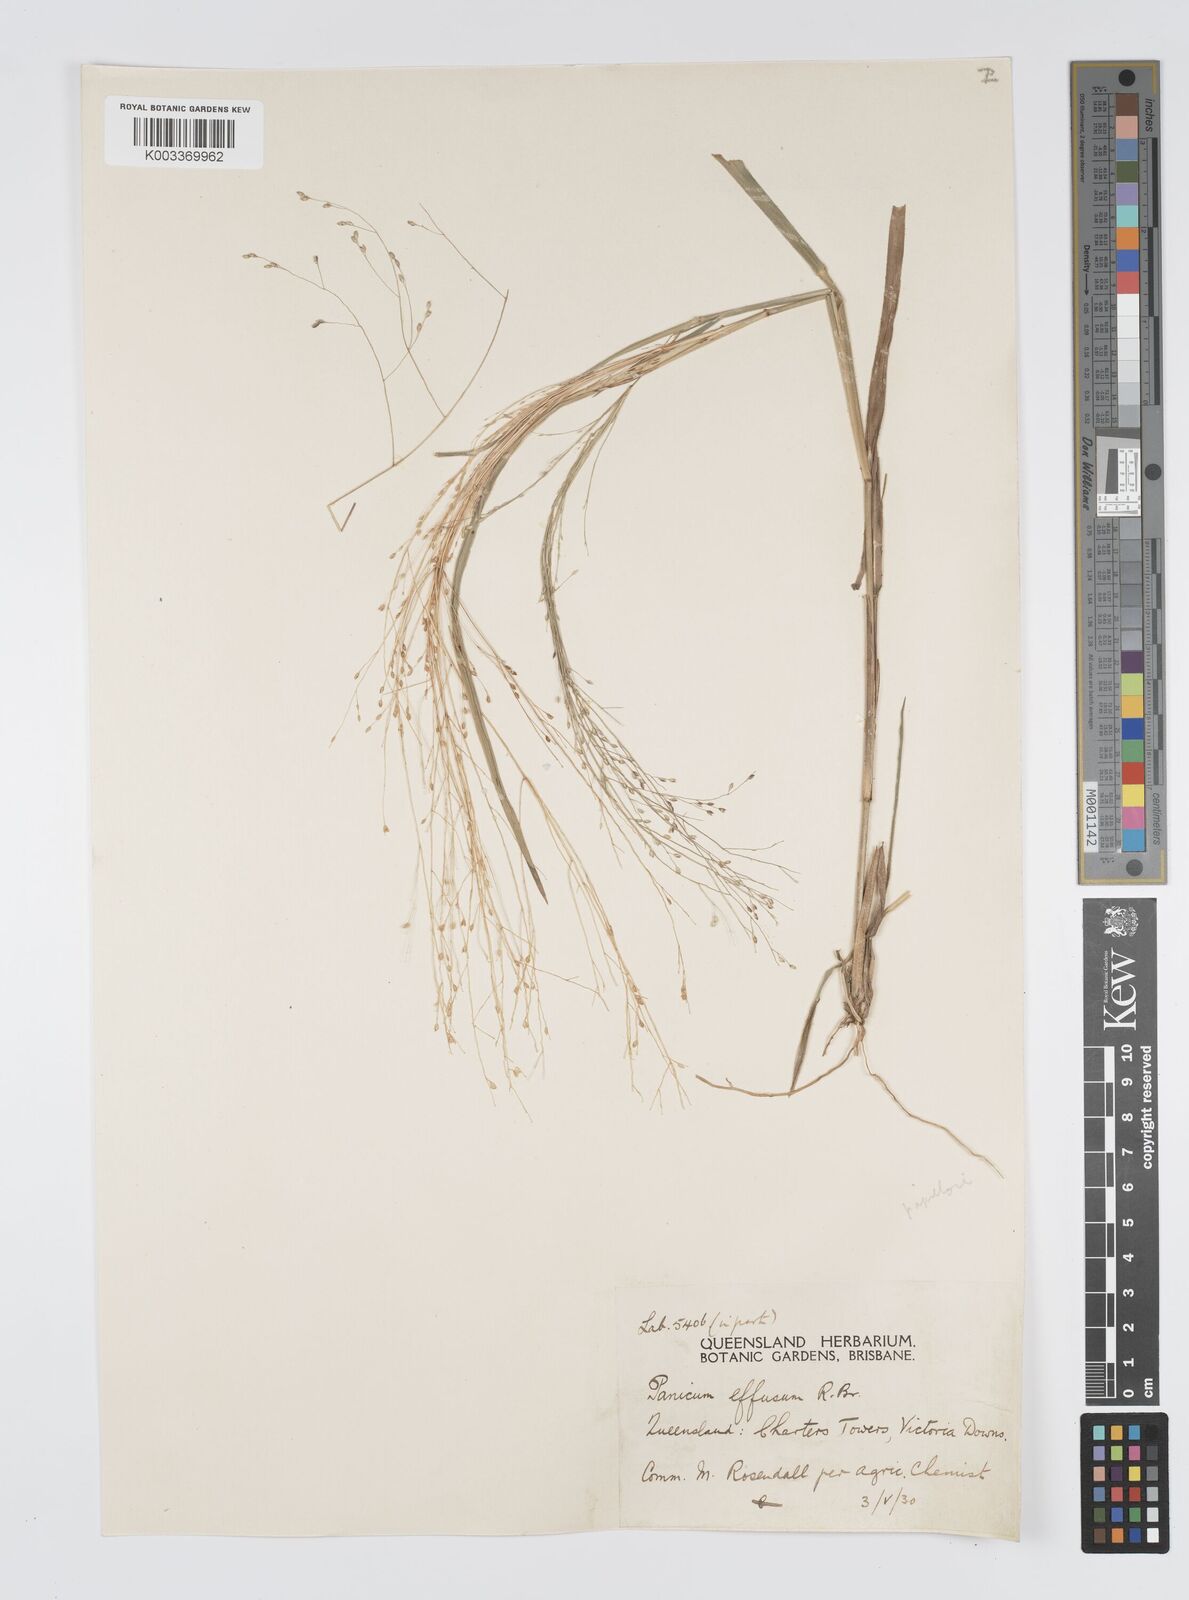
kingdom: Plantae
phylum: Tracheophyta
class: Liliopsida
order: Poales
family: Poaceae
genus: Panicum
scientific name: Panicum effusum
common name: Hairy panic grass
